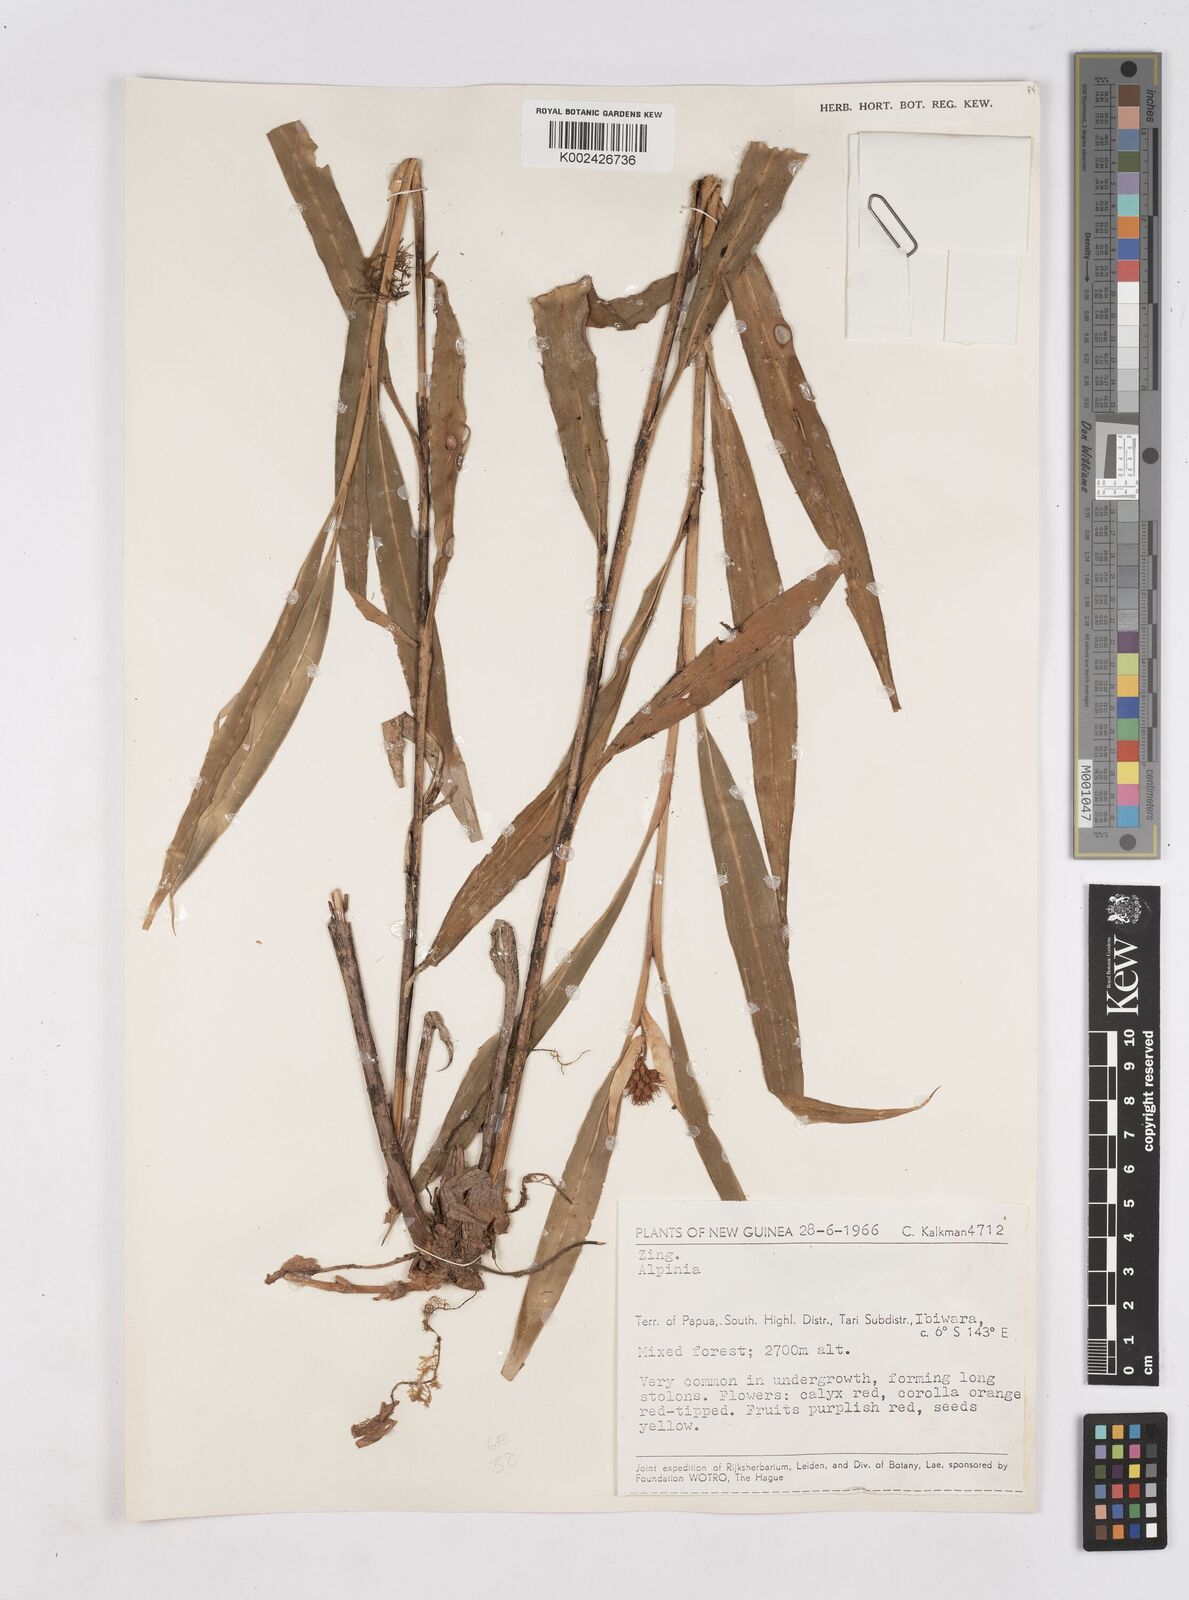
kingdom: Plantae
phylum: Tracheophyta
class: Liliopsida
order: Zingiberales
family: Zingiberaceae
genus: Riedelia
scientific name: Riedelia
